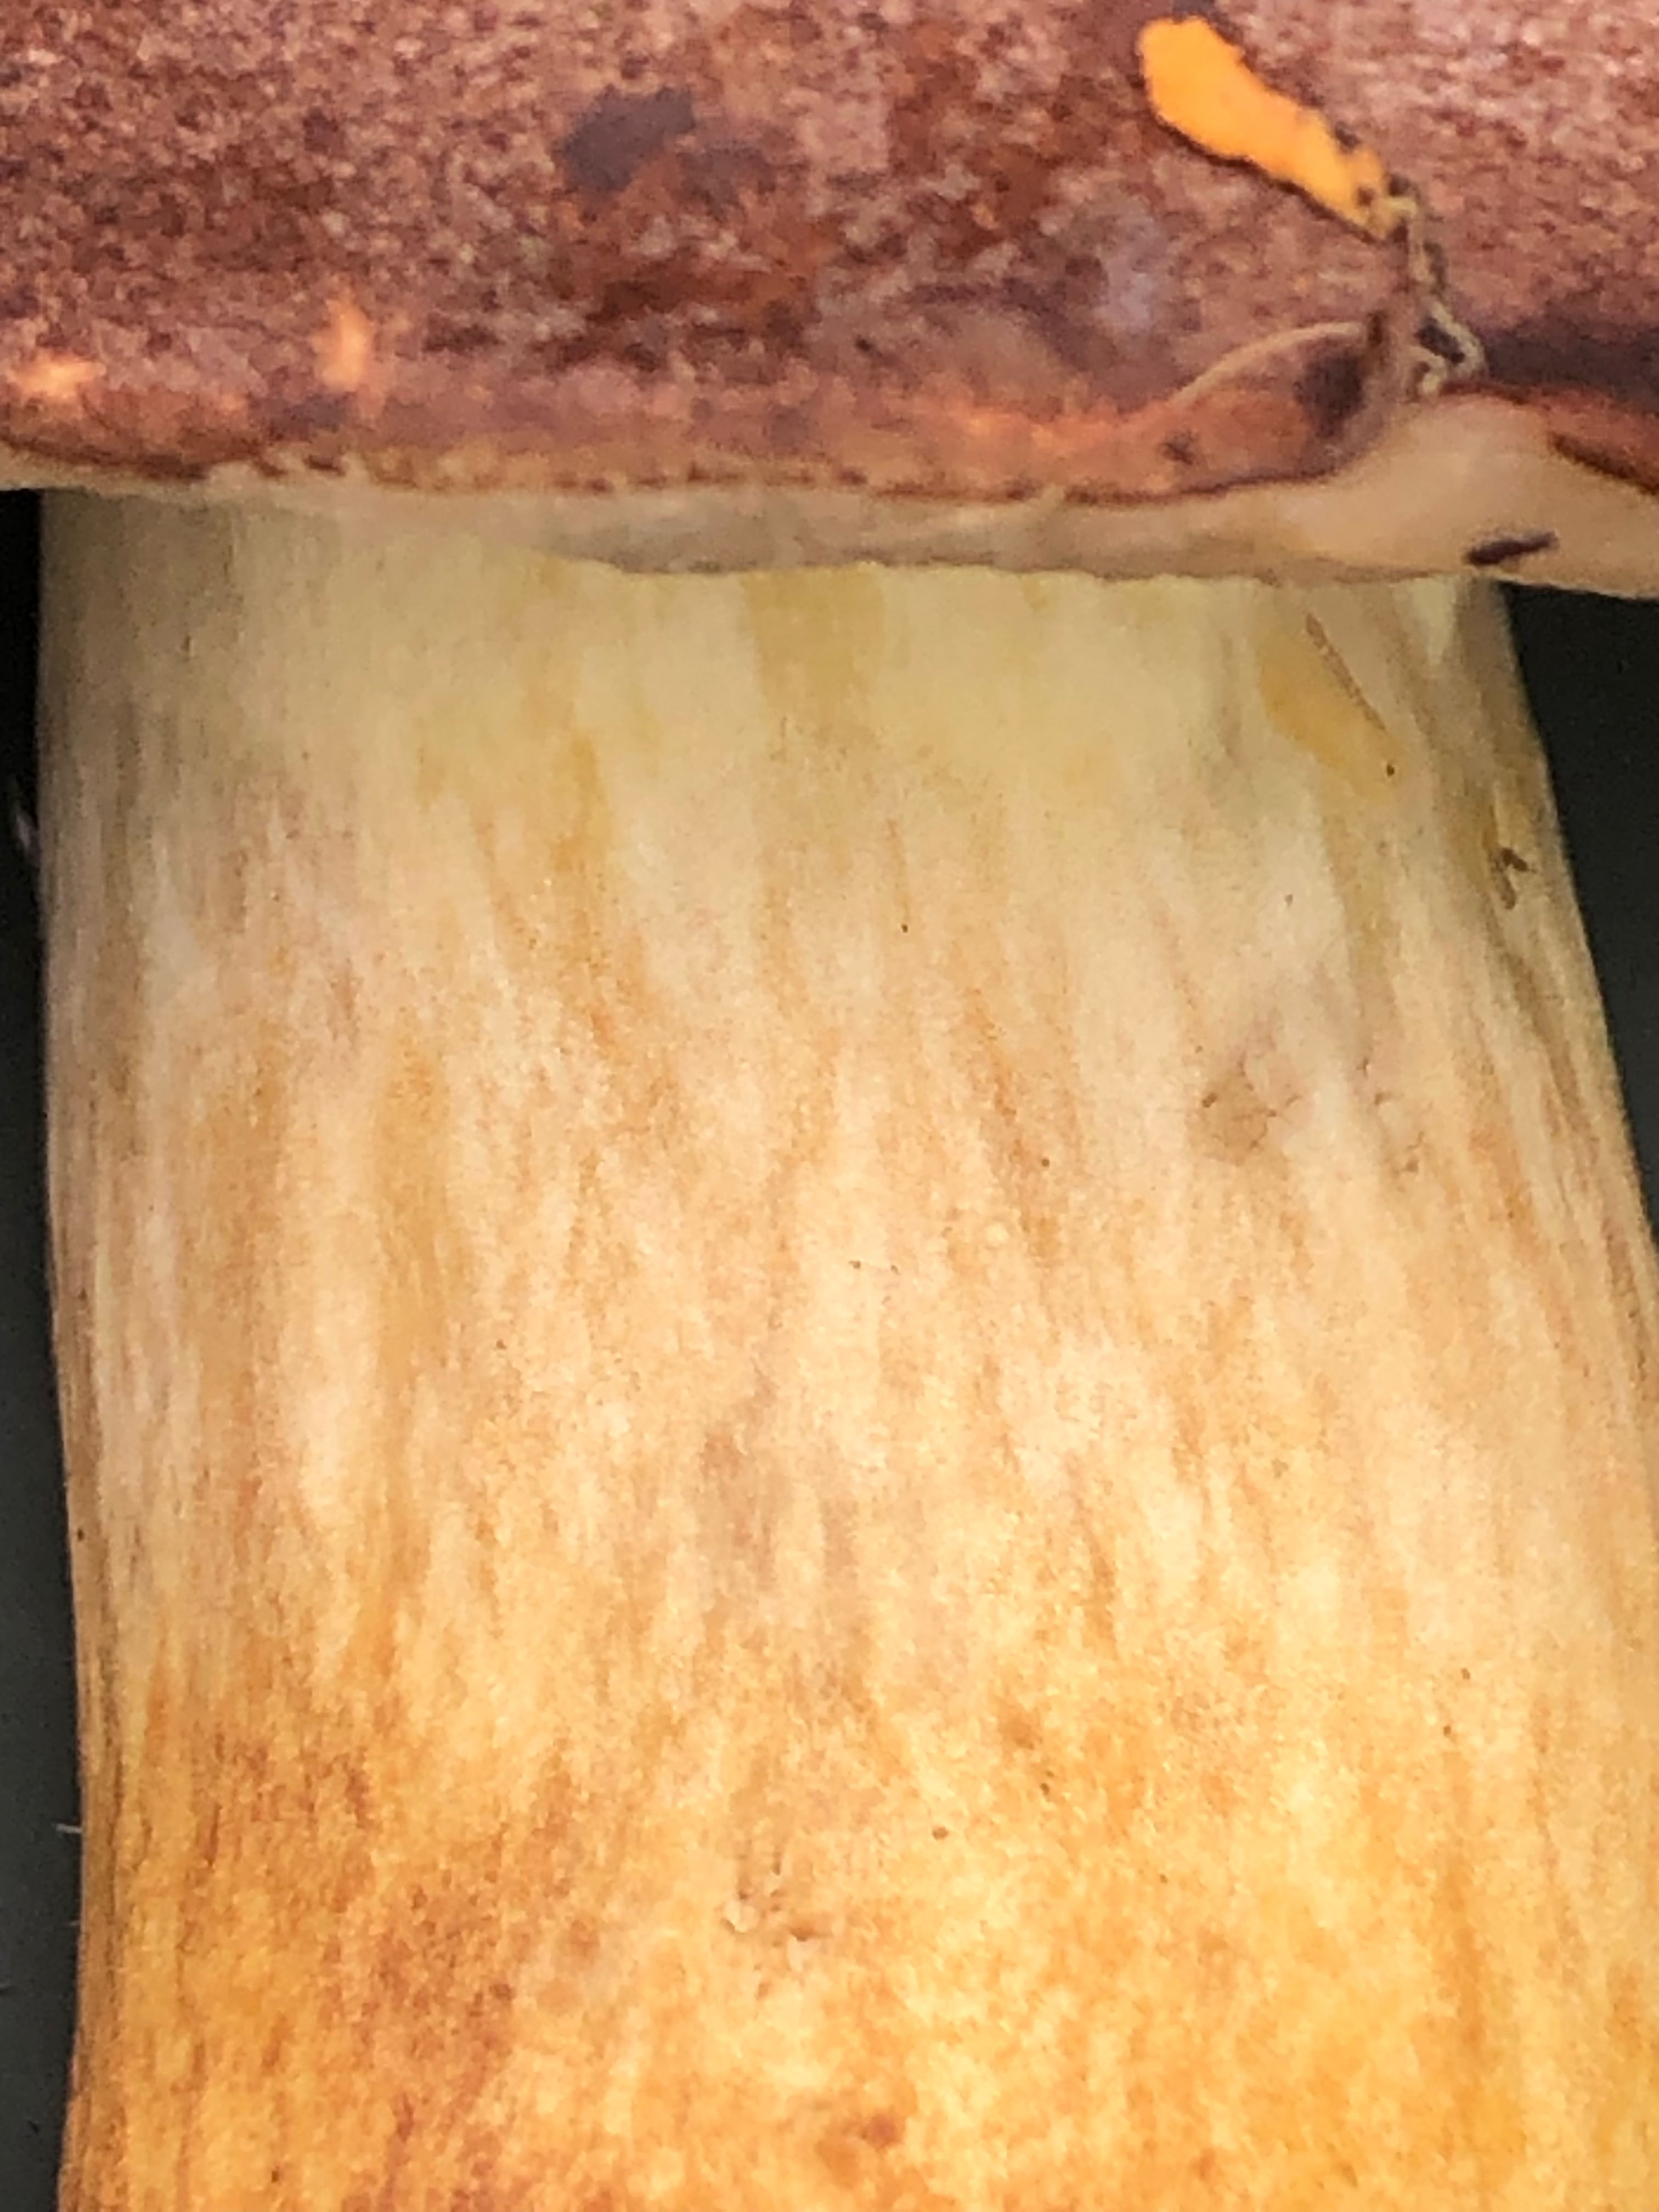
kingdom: Fungi
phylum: Basidiomycota
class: Agaricomycetes
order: Boletales
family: Boletaceae
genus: Imleria
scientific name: Imleria badia
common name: brunstokket rørhat
